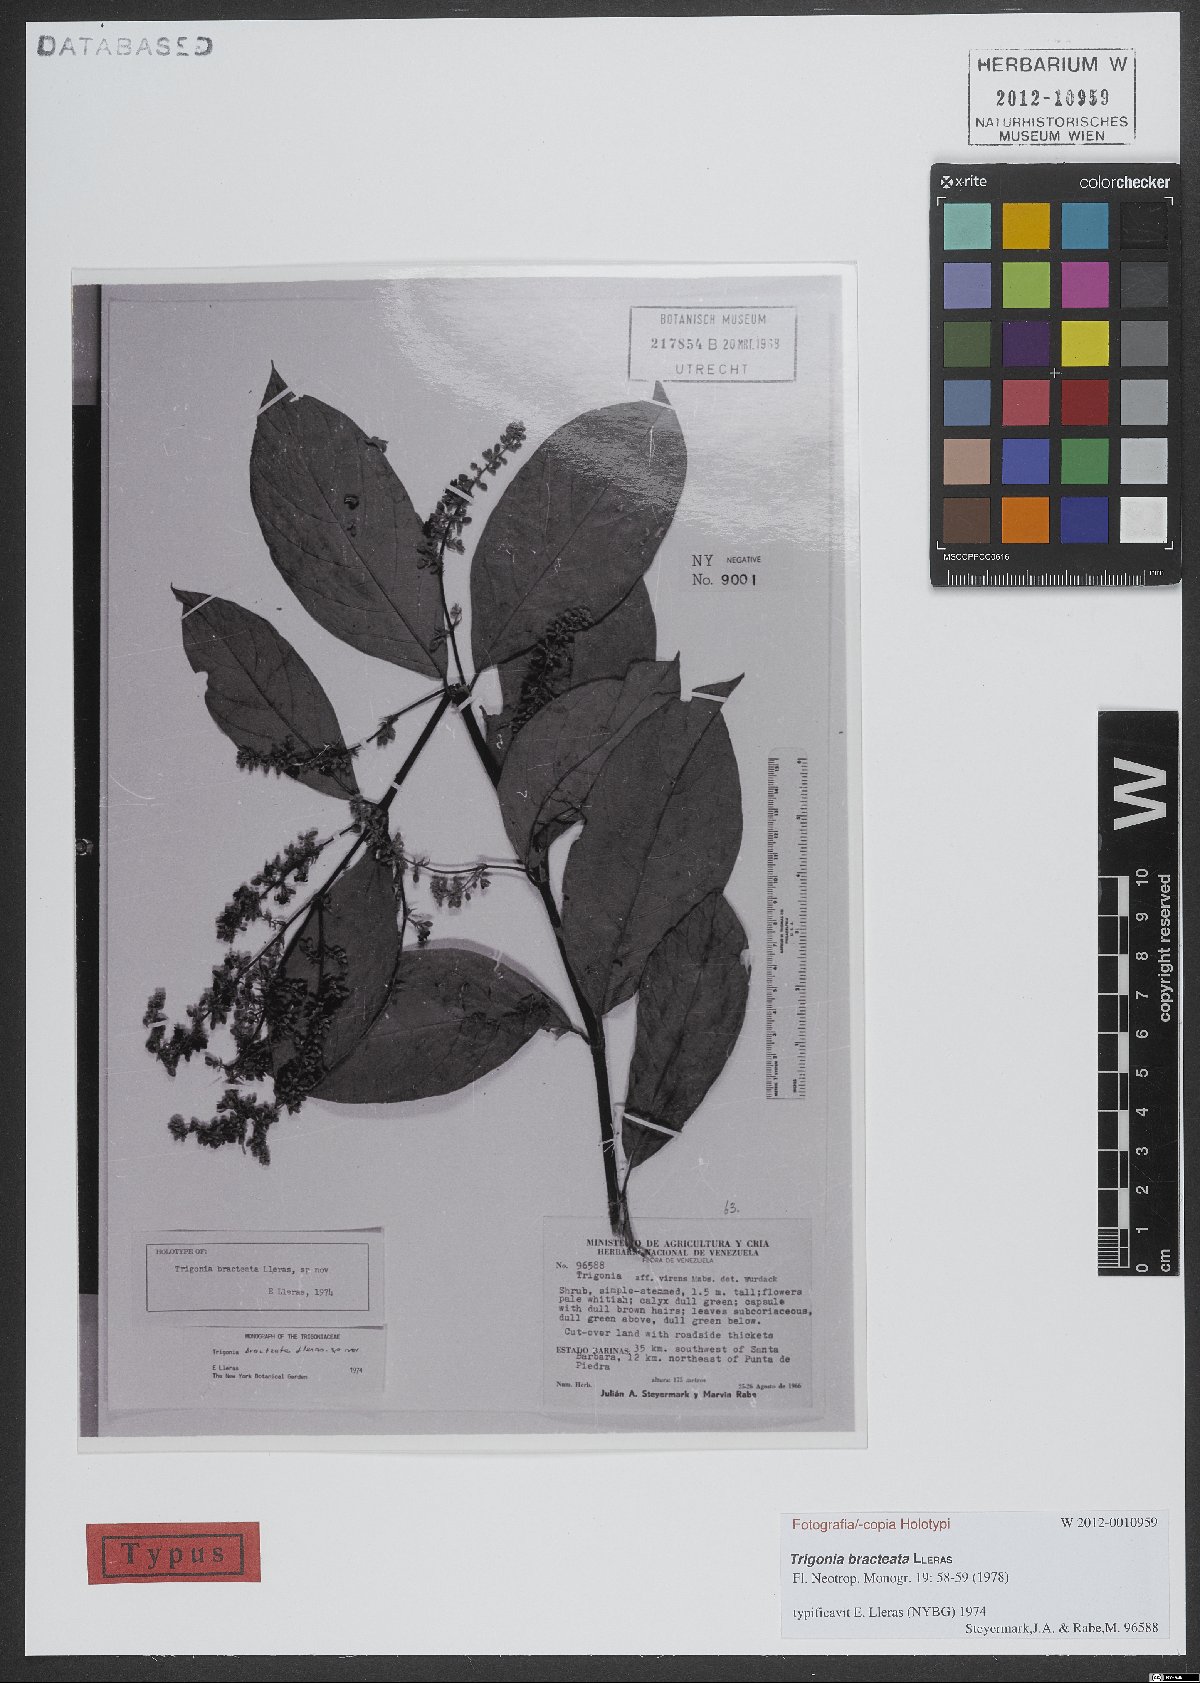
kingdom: Plantae
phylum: Tracheophyta
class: Magnoliopsida
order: Malpighiales
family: Trigoniaceae
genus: Trigonia
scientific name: Trigonia bracteata
